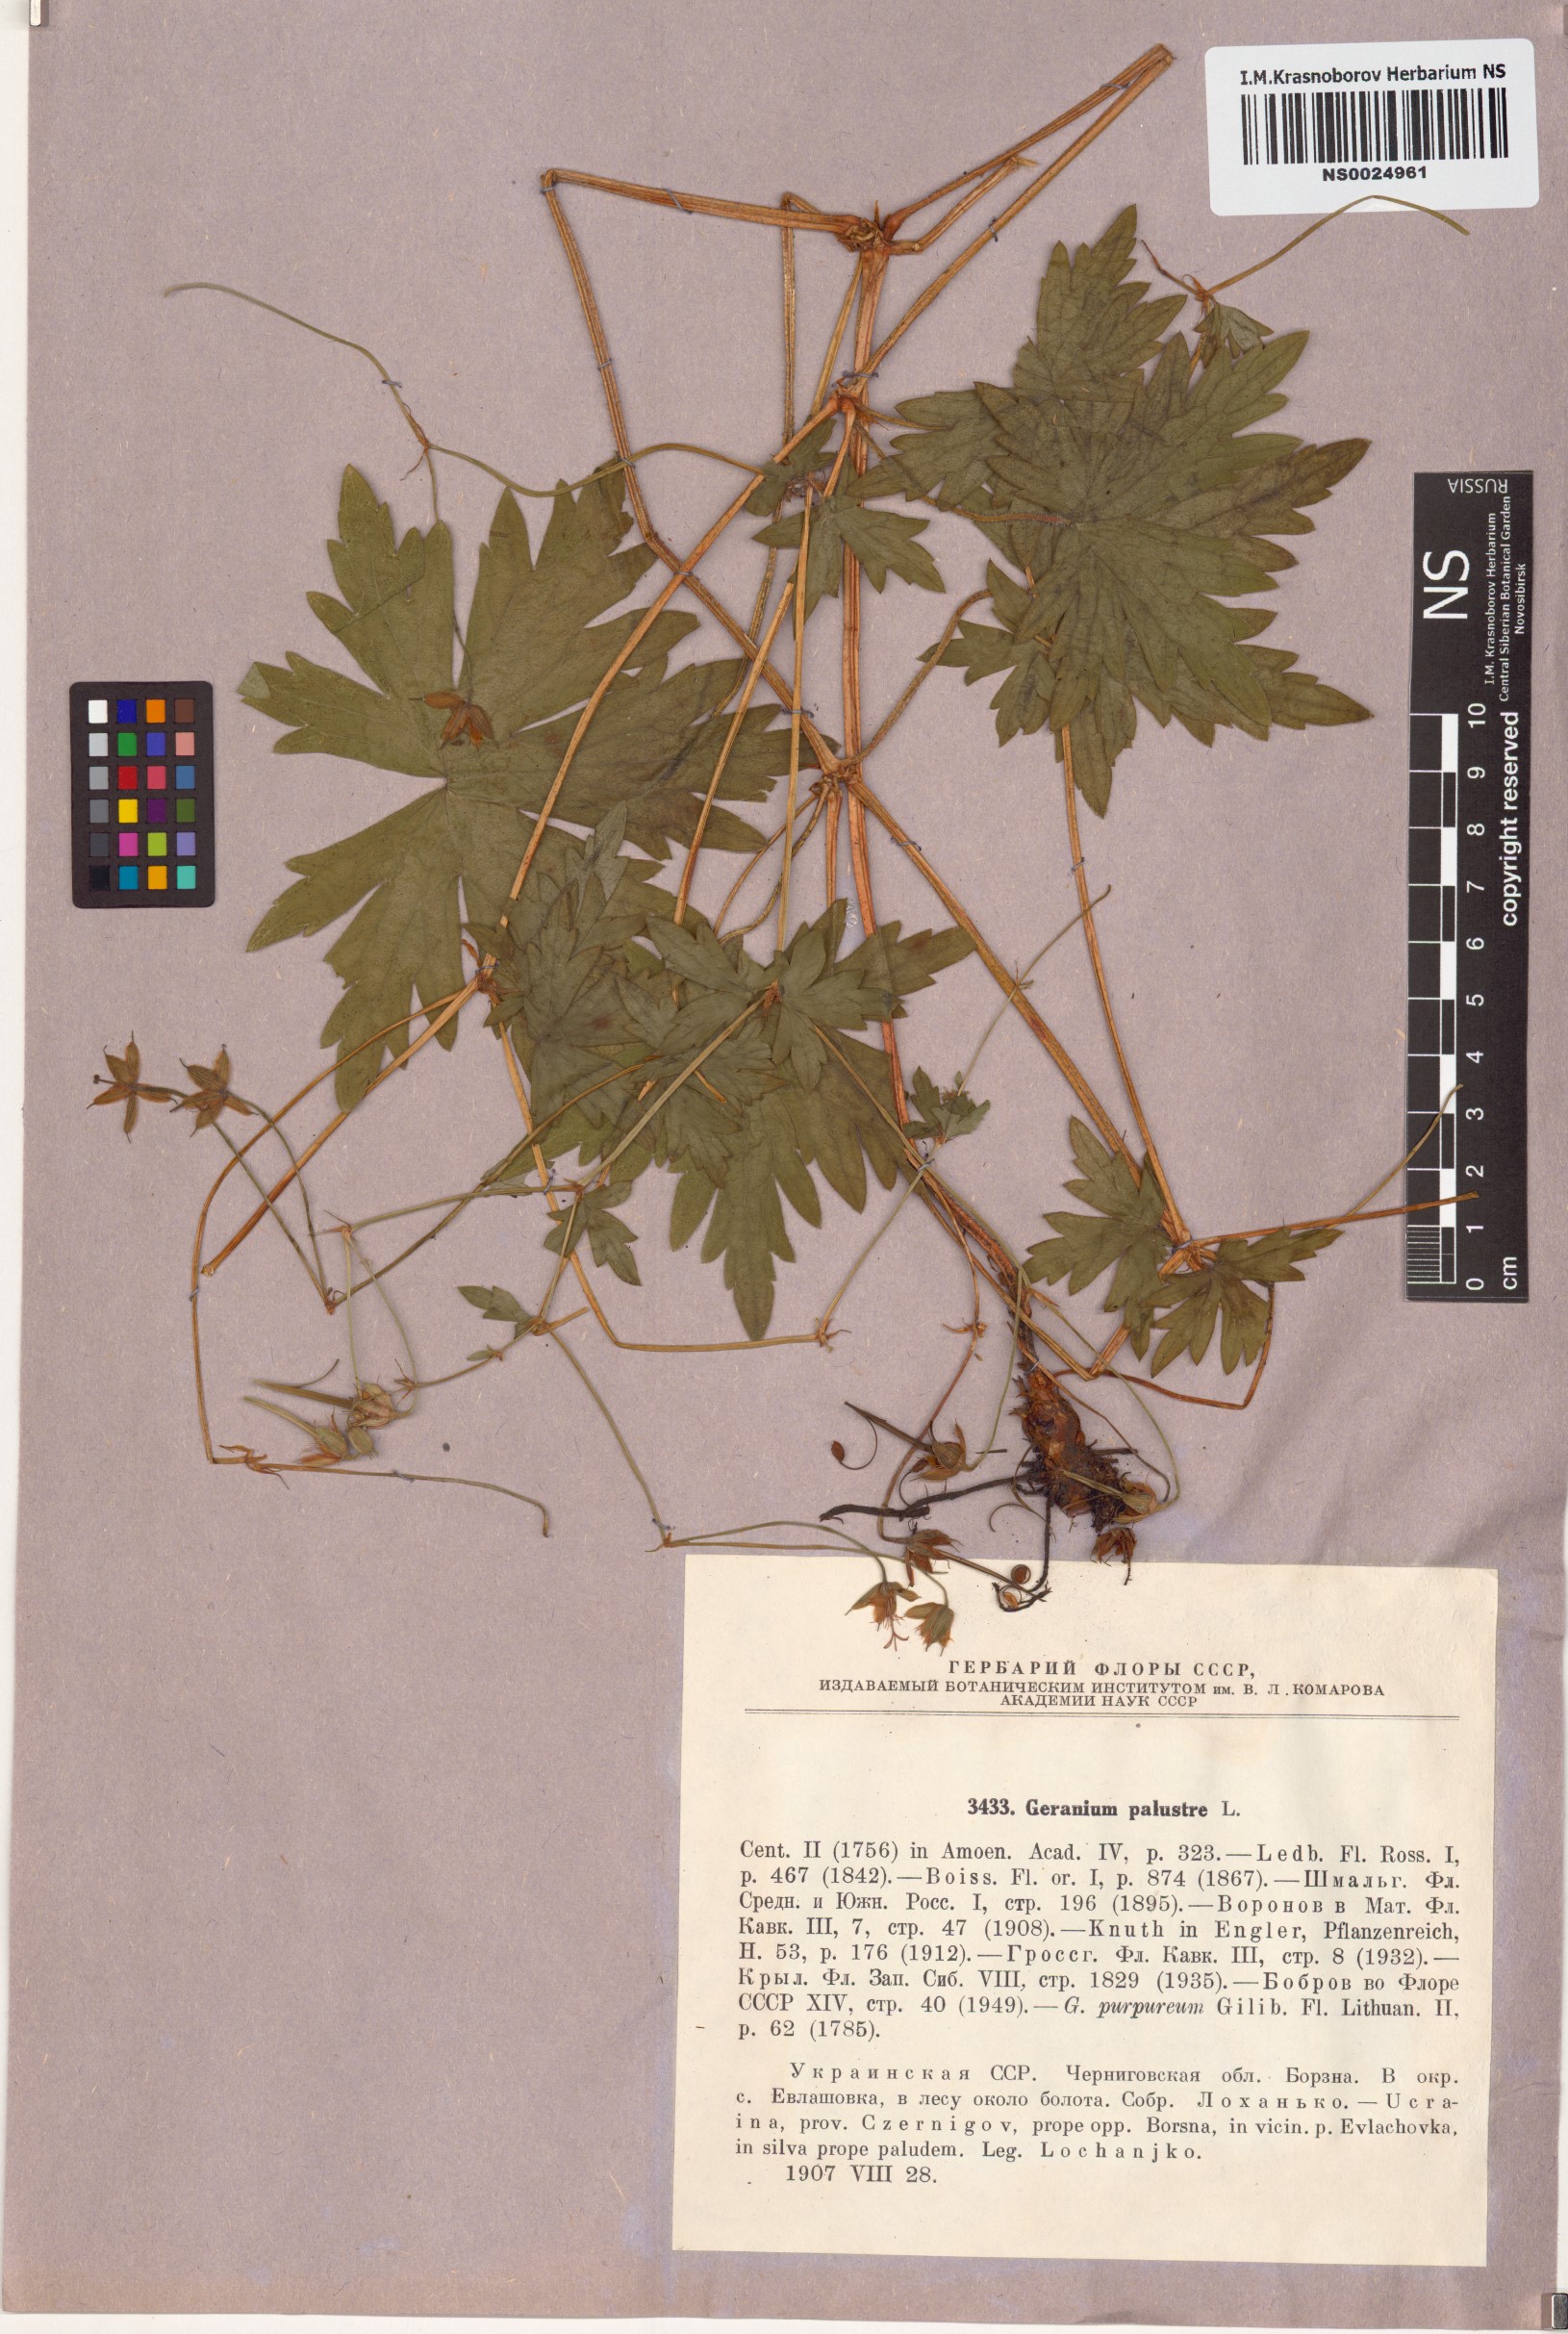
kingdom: Plantae
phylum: Tracheophyta
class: Magnoliopsida
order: Geraniales
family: Geraniaceae
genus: Geranium
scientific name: Geranium palustre
